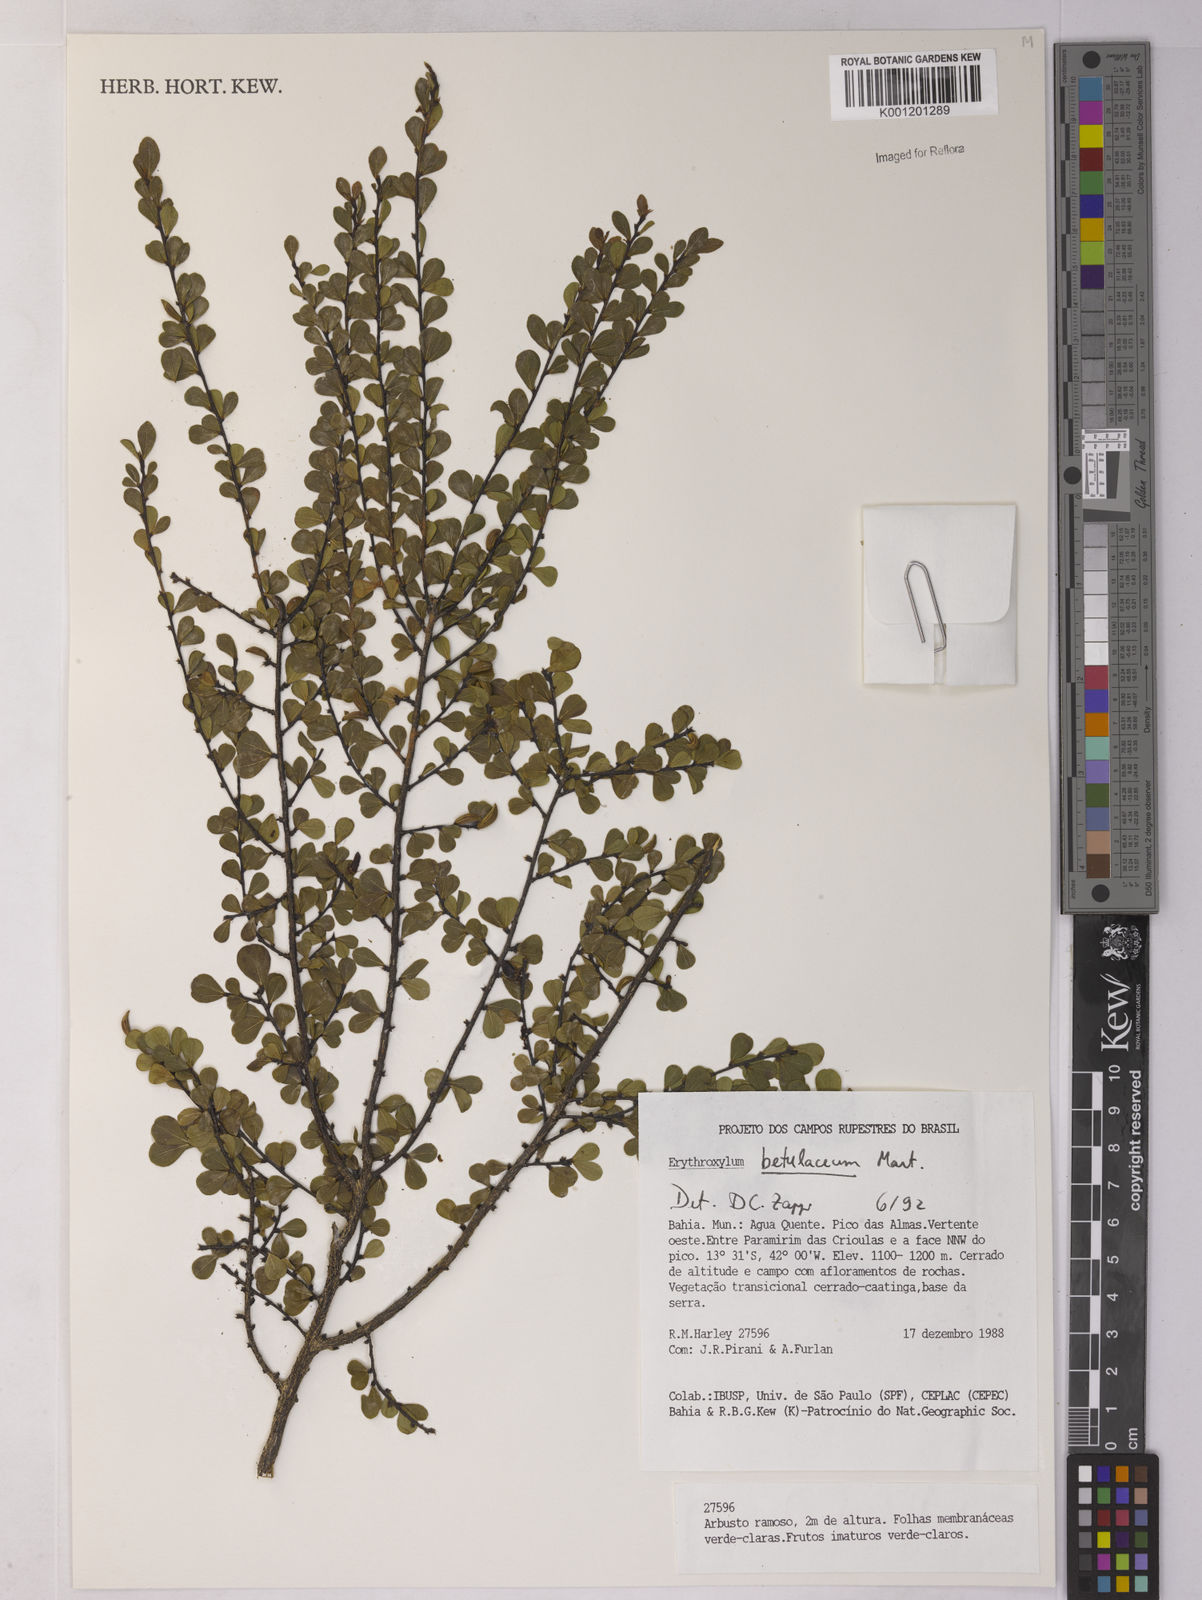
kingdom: Plantae
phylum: Tracheophyta
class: Magnoliopsida
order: Malpighiales
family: Erythroxylaceae
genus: Erythroxylum
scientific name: Erythroxylum betulaceum
